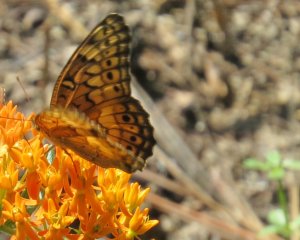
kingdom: Animalia
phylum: Arthropoda
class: Insecta
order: Lepidoptera
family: Nymphalidae
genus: Euptoieta
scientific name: Euptoieta claudia
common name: Variegated Fritillary
